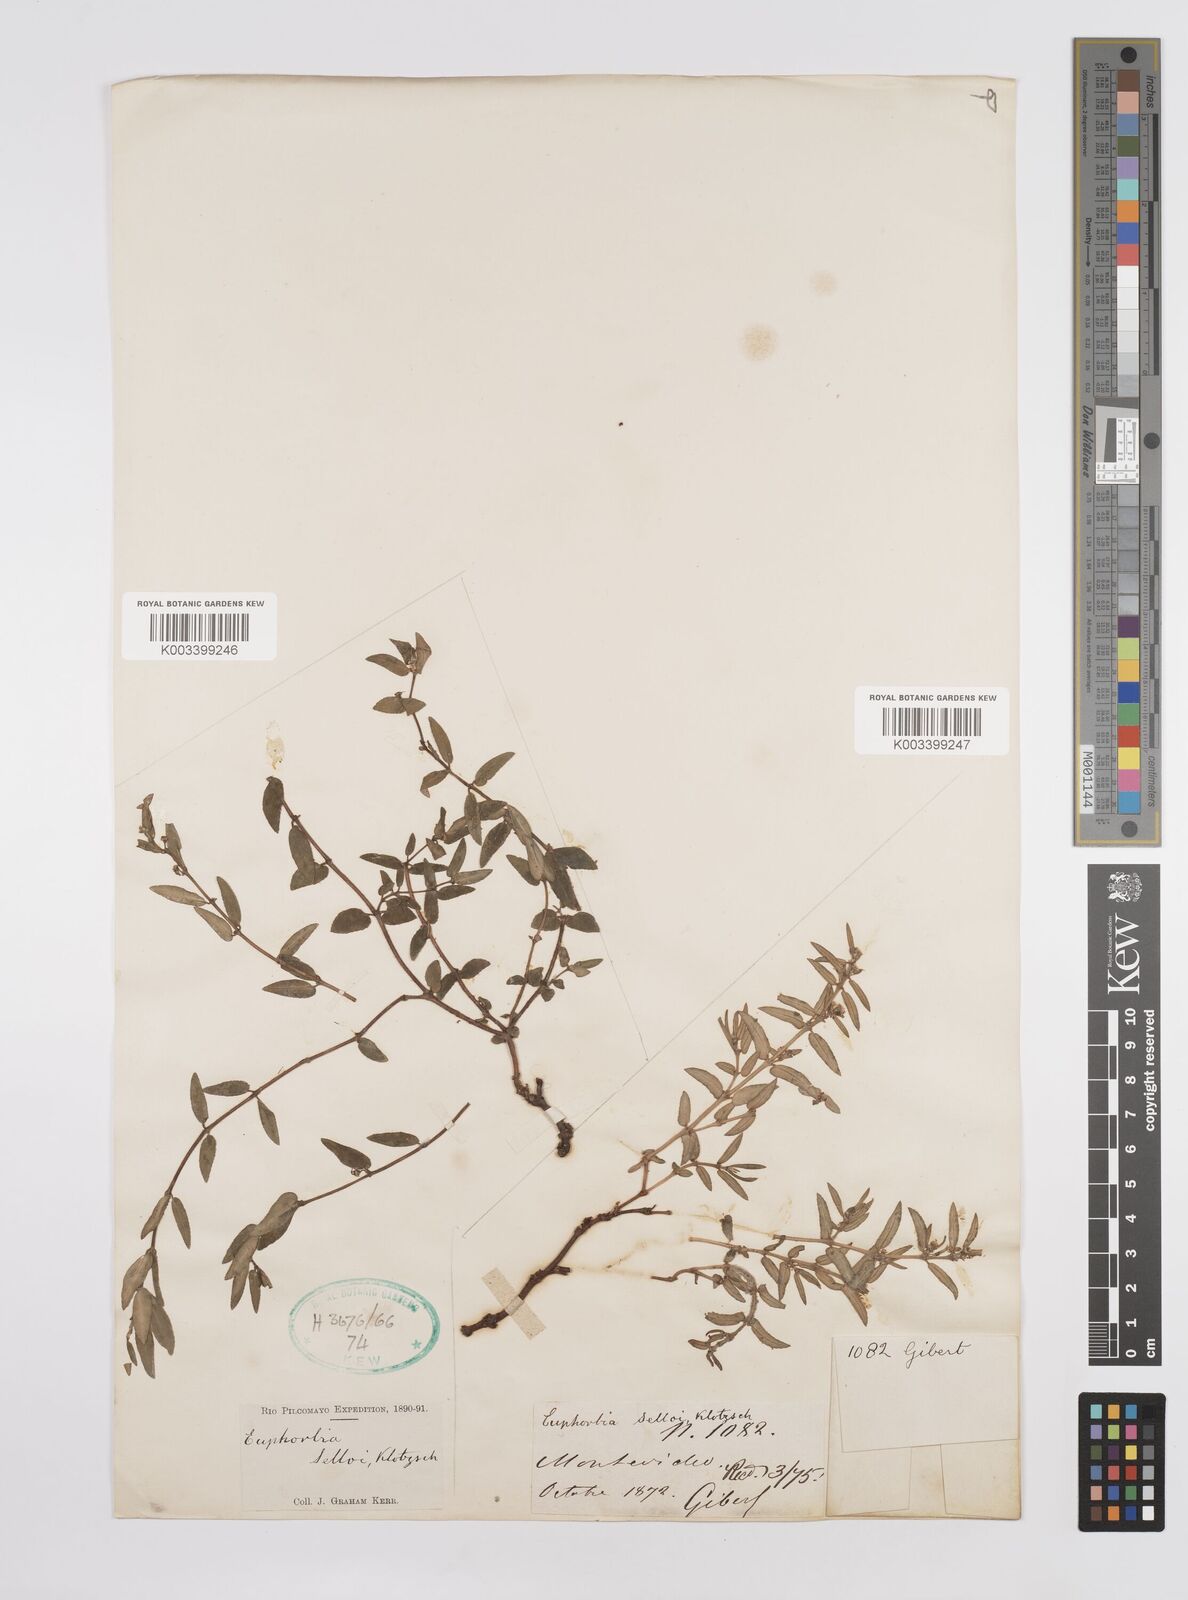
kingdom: Plantae
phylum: Tracheophyta
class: Magnoliopsida
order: Malpighiales
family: Euphorbiaceae
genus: Euphorbia
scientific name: Euphorbia selloi
